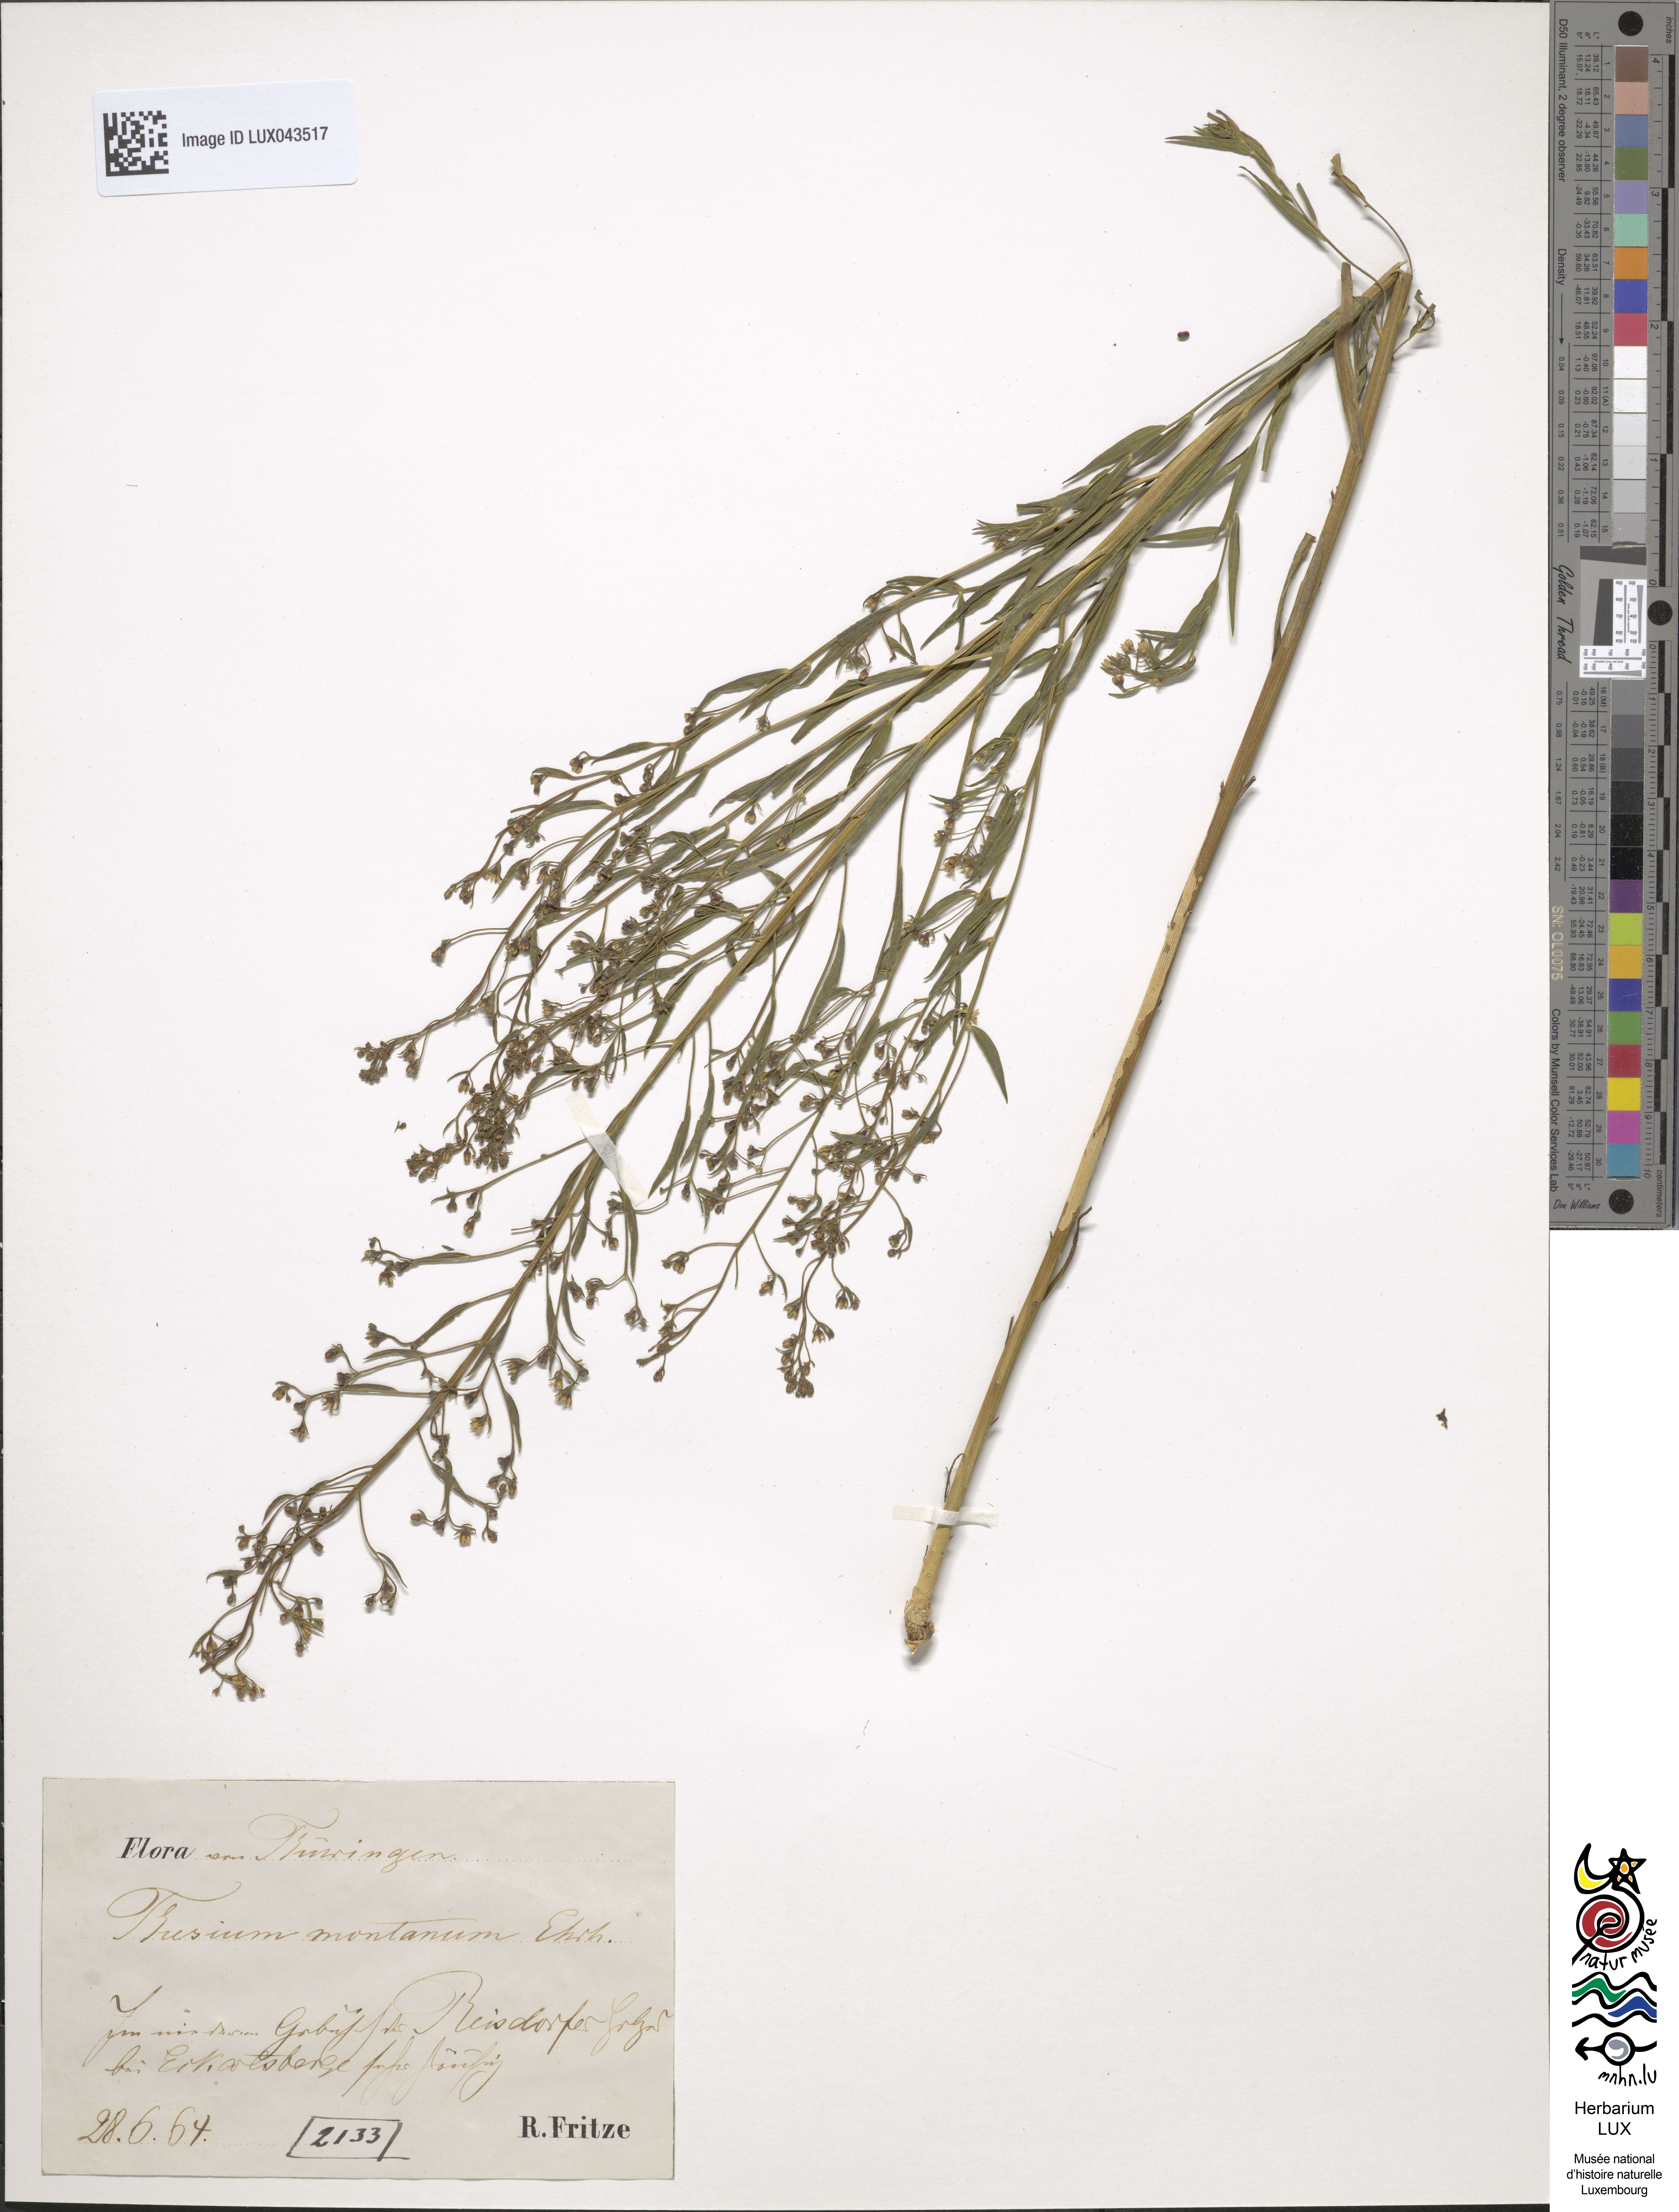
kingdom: Plantae
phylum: Tracheophyta
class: Magnoliopsida
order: Santalales
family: Thesiaceae
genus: Thesium
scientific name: Thesium bavarum
